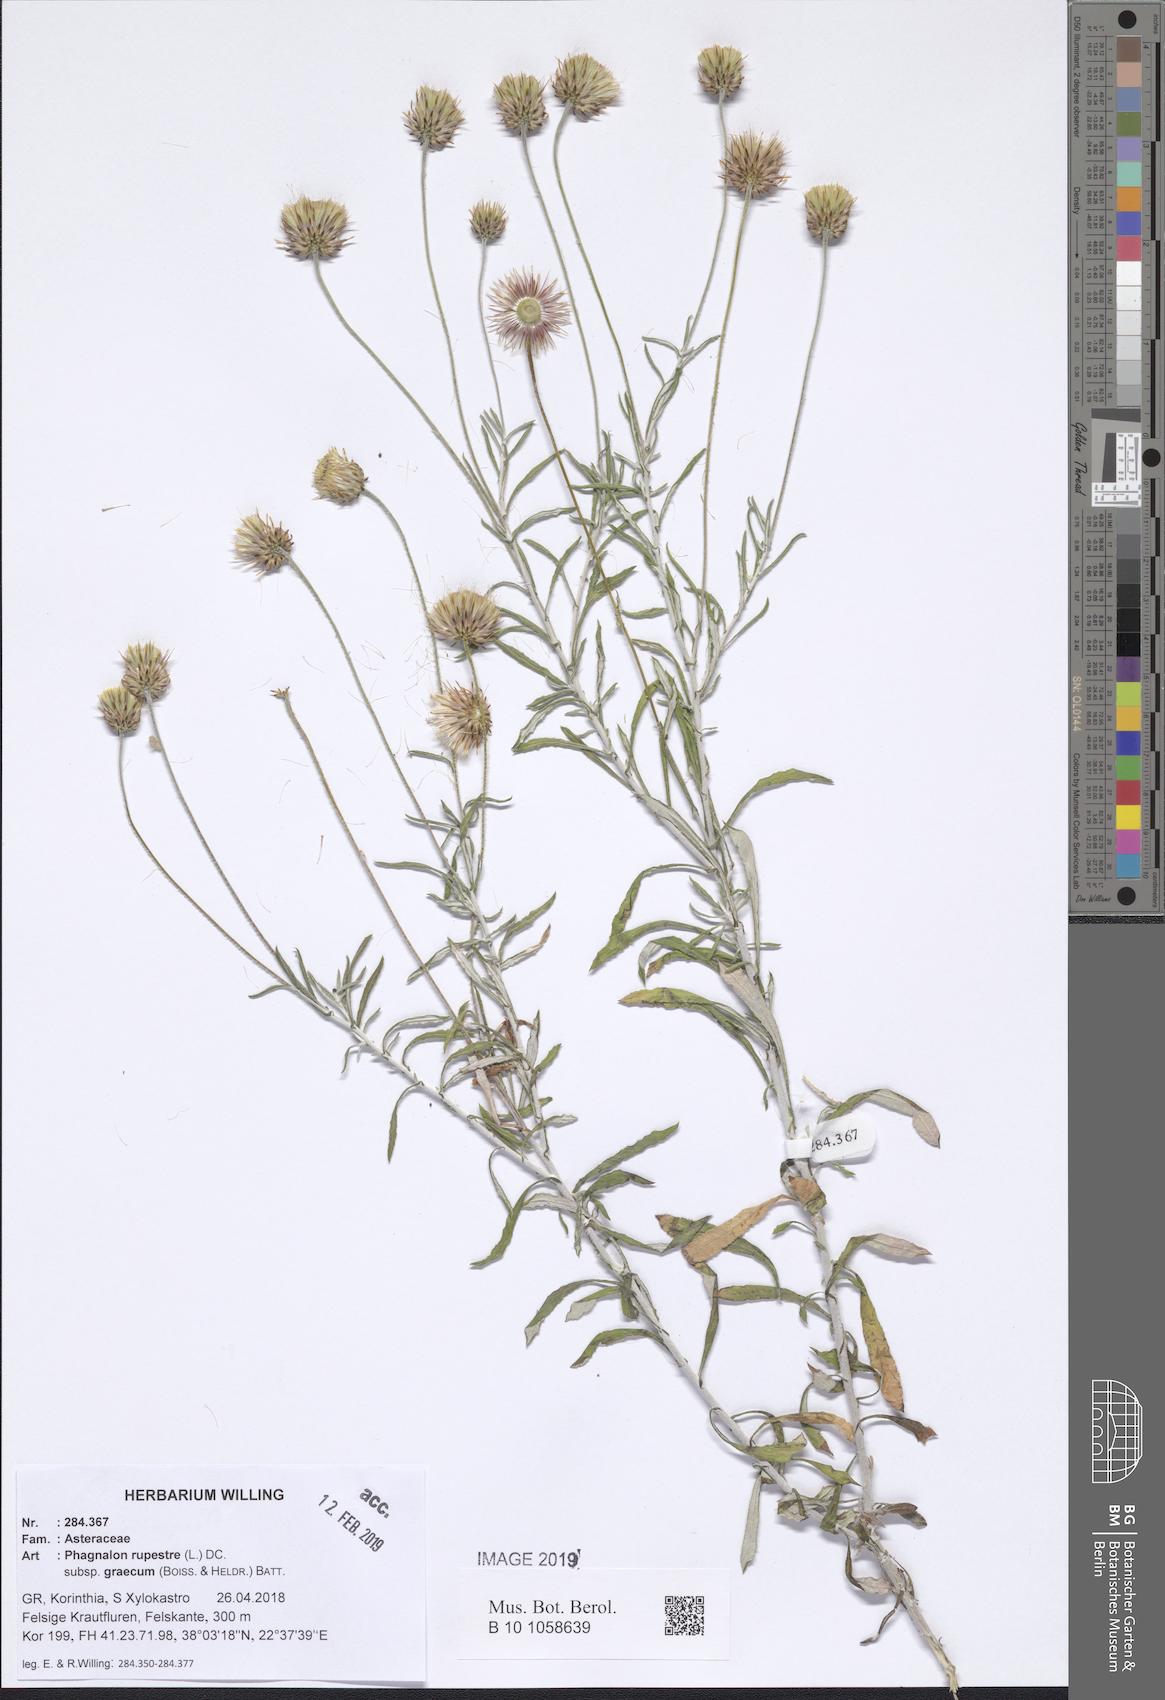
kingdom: Plantae
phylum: Tracheophyta
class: Magnoliopsida
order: Asterales
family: Asteraceae
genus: Phagnalon
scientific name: Phagnalon graecum
